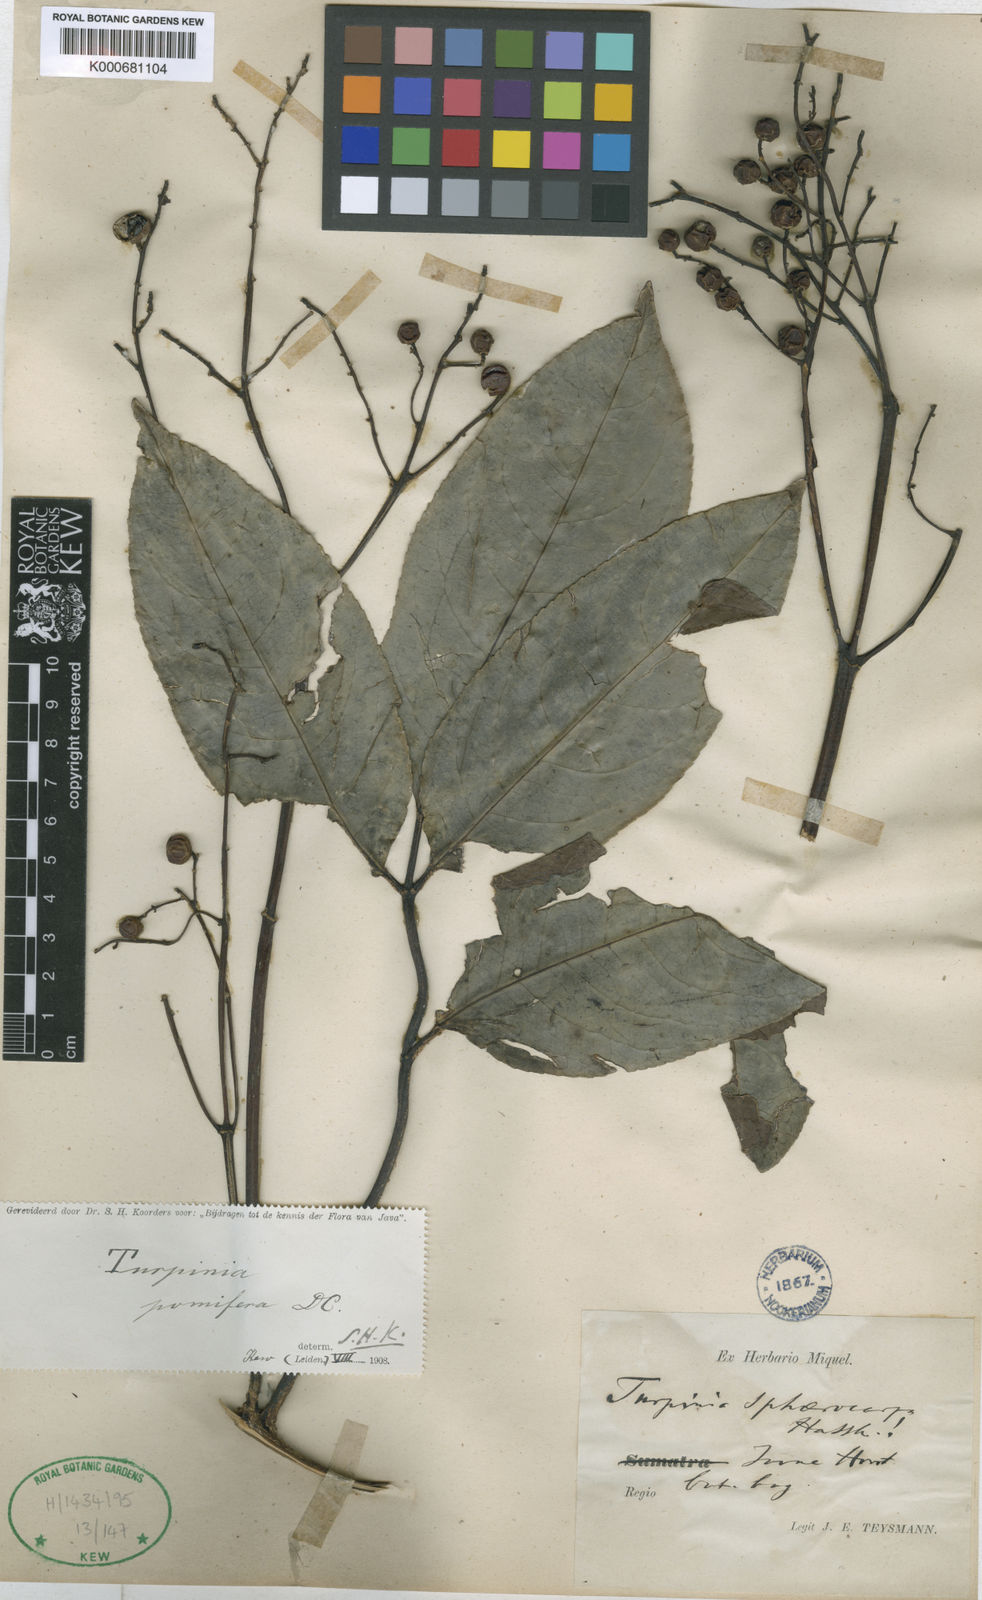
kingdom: Plantae
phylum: Tracheophyta
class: Magnoliopsida
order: Crossosomatales
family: Staphyleaceae
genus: Dalrympelea
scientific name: Dalrympelea sphaerocarpa
